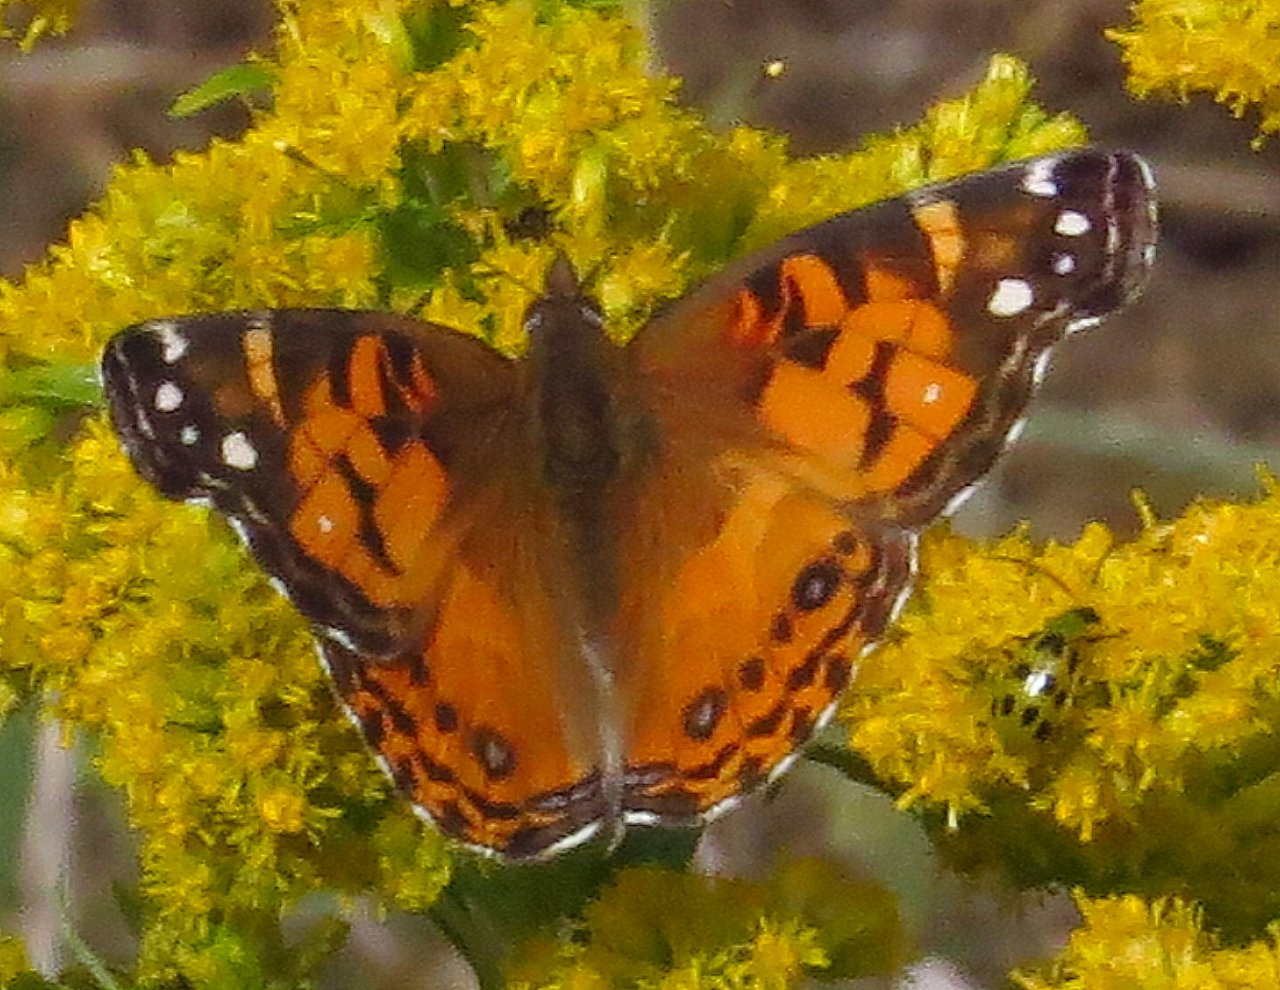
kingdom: Animalia
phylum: Arthropoda
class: Insecta
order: Lepidoptera
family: Nymphalidae
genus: Vanessa
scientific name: Vanessa virginiensis
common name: American Lady
